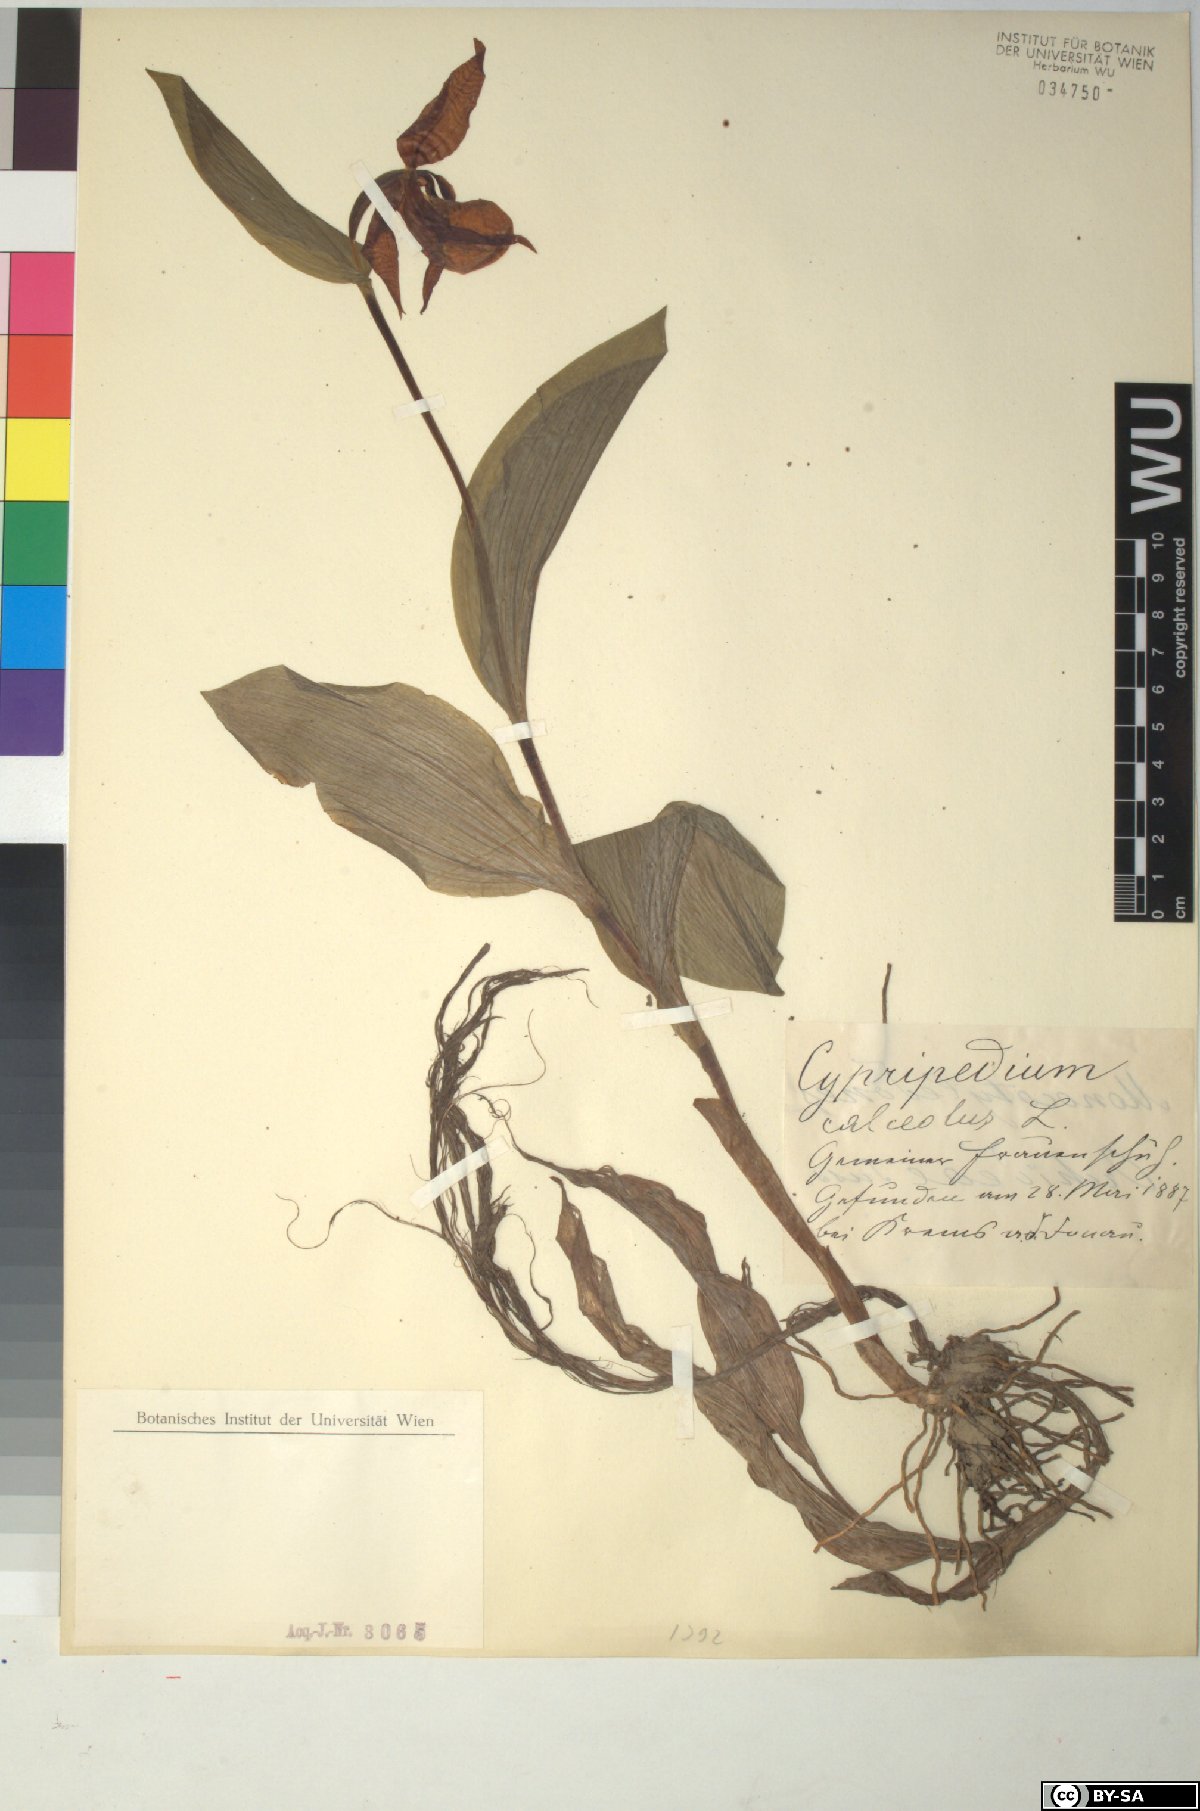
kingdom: Plantae
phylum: Tracheophyta
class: Liliopsida
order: Asparagales
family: Orchidaceae
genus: Cypripedium
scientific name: Cypripedium calceolus
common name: Lady's-slipper
